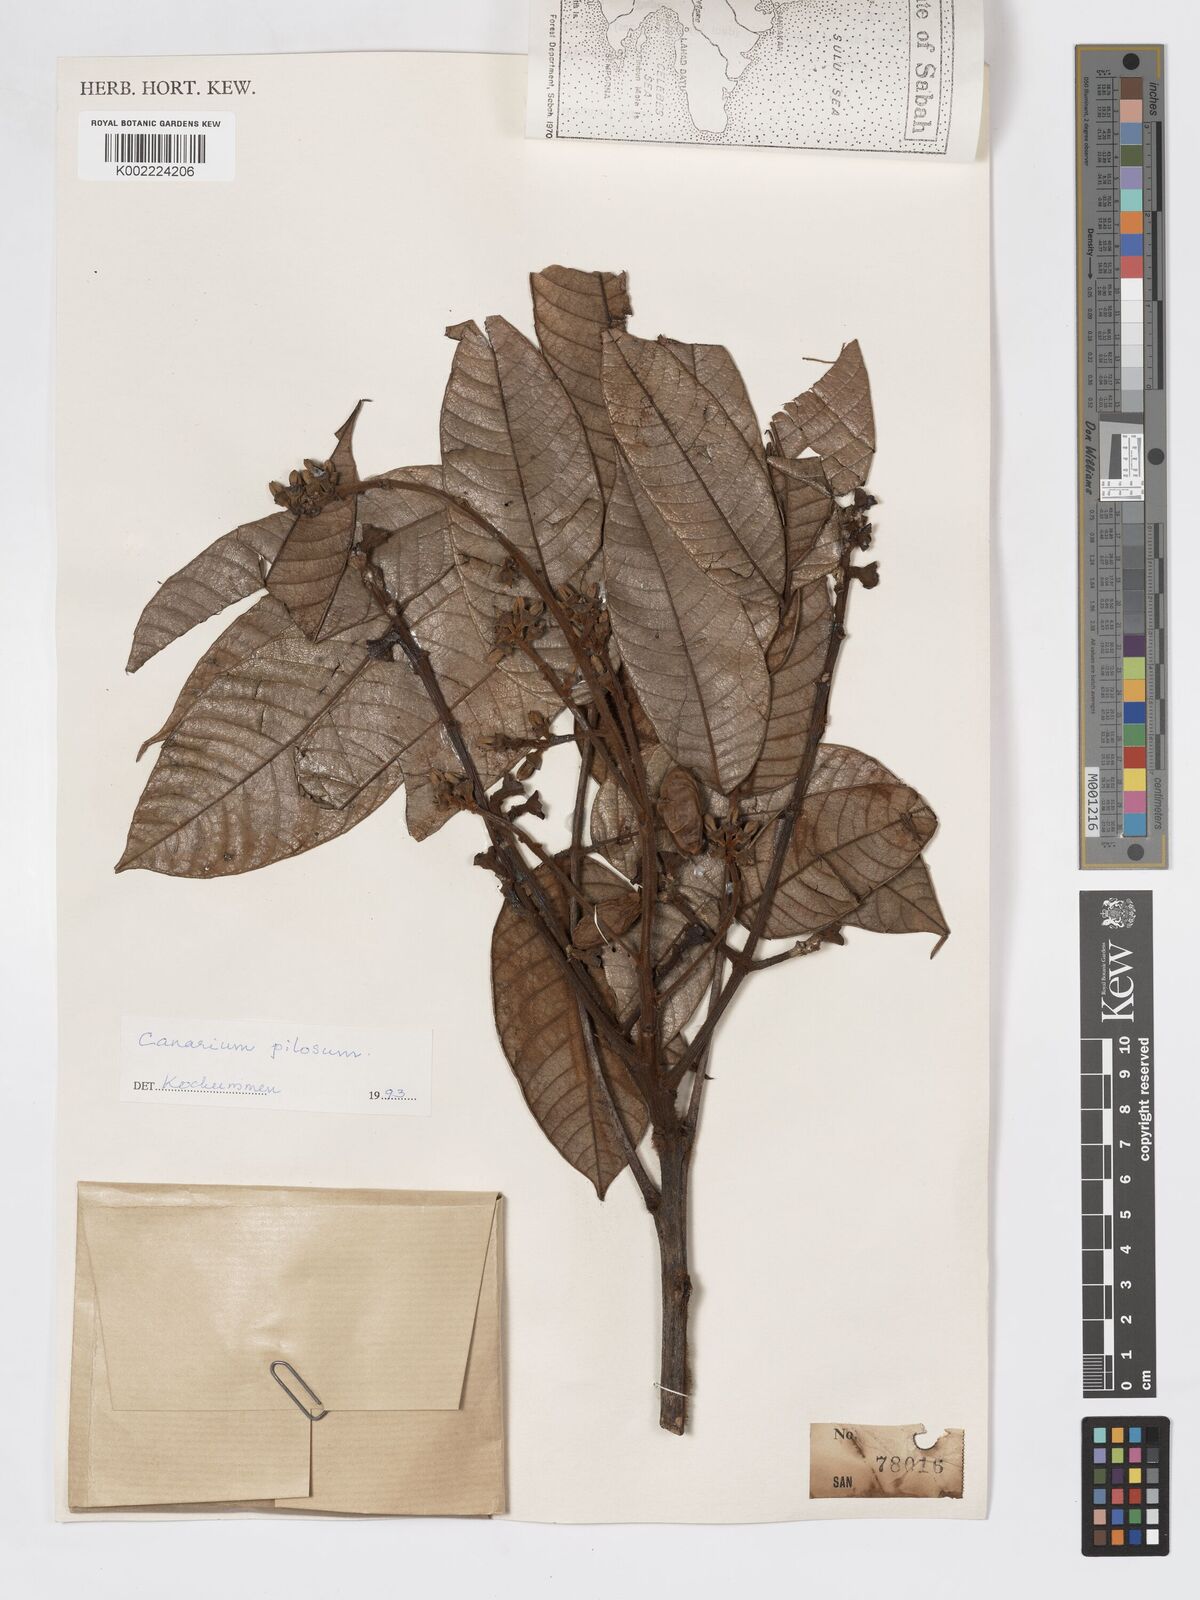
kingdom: Plantae
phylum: Tracheophyta
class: Magnoliopsida
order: Sapindales
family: Burseraceae
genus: Canarium
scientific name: Canarium pilosum
